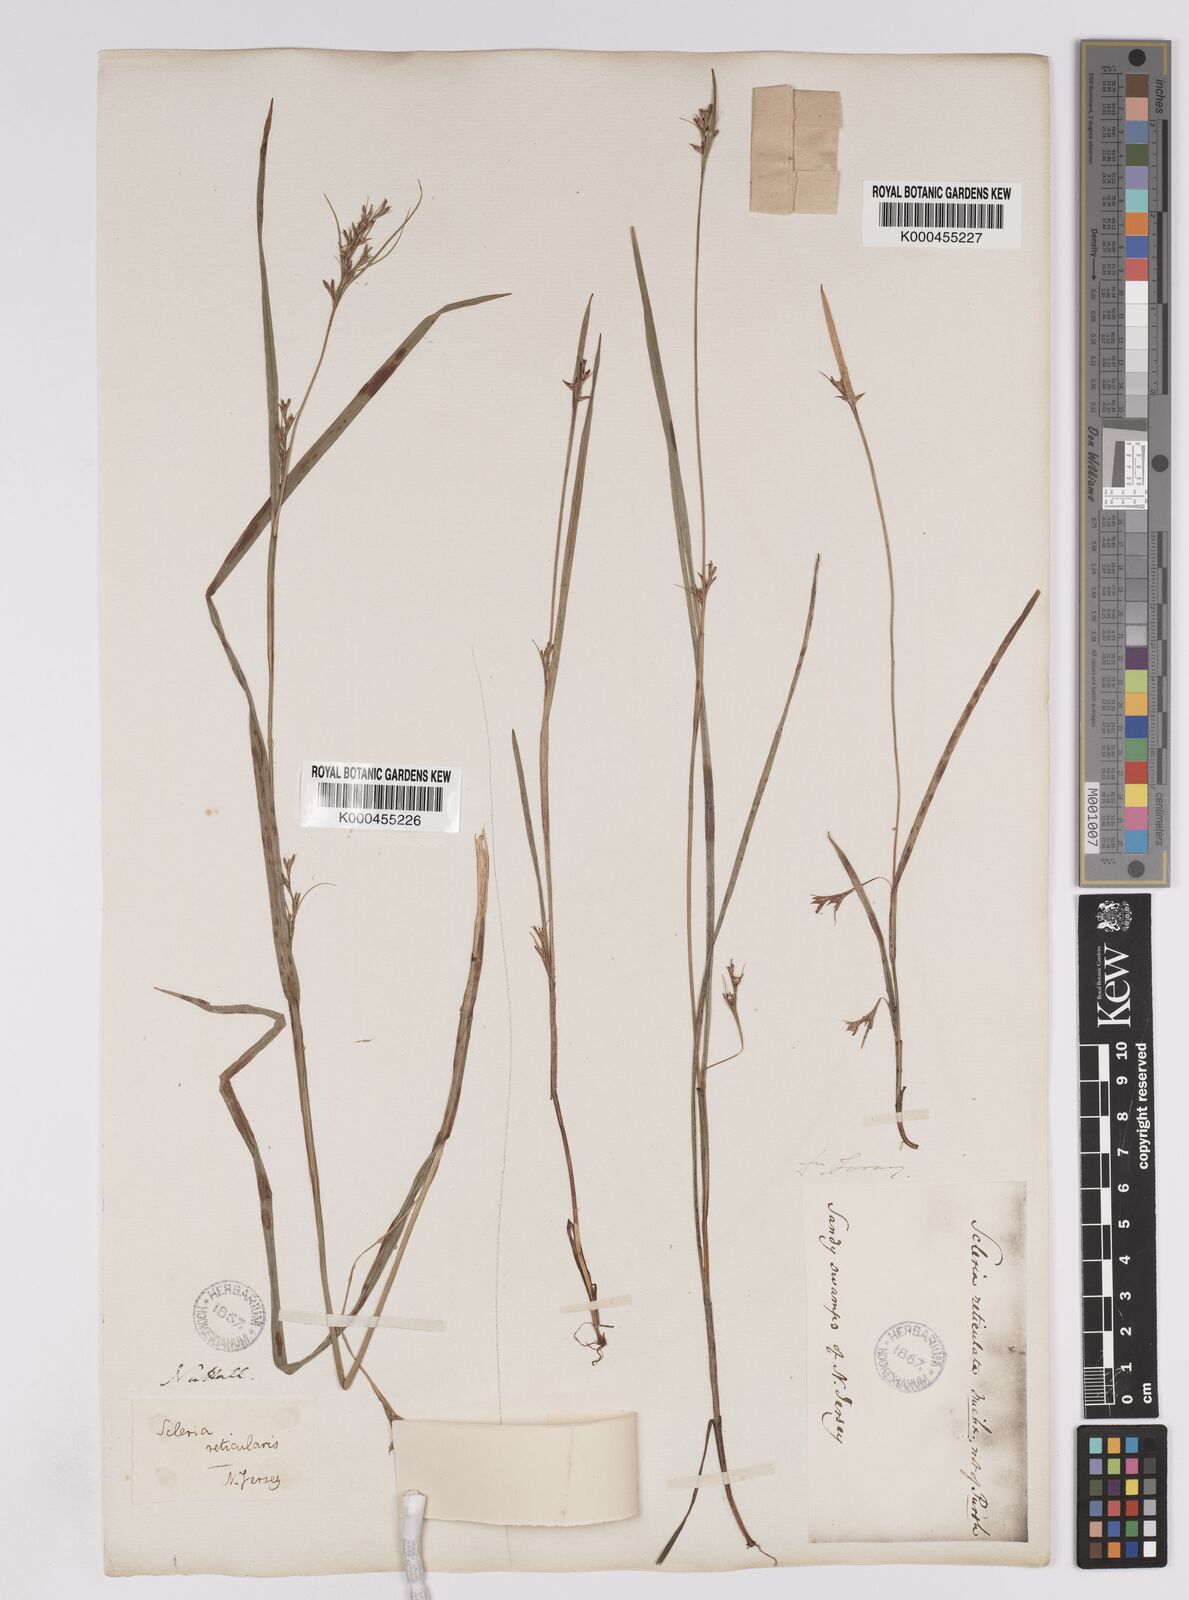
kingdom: Plantae
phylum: Tracheophyta
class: Liliopsida
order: Poales
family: Cyperaceae
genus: Scleria
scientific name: Scleria
